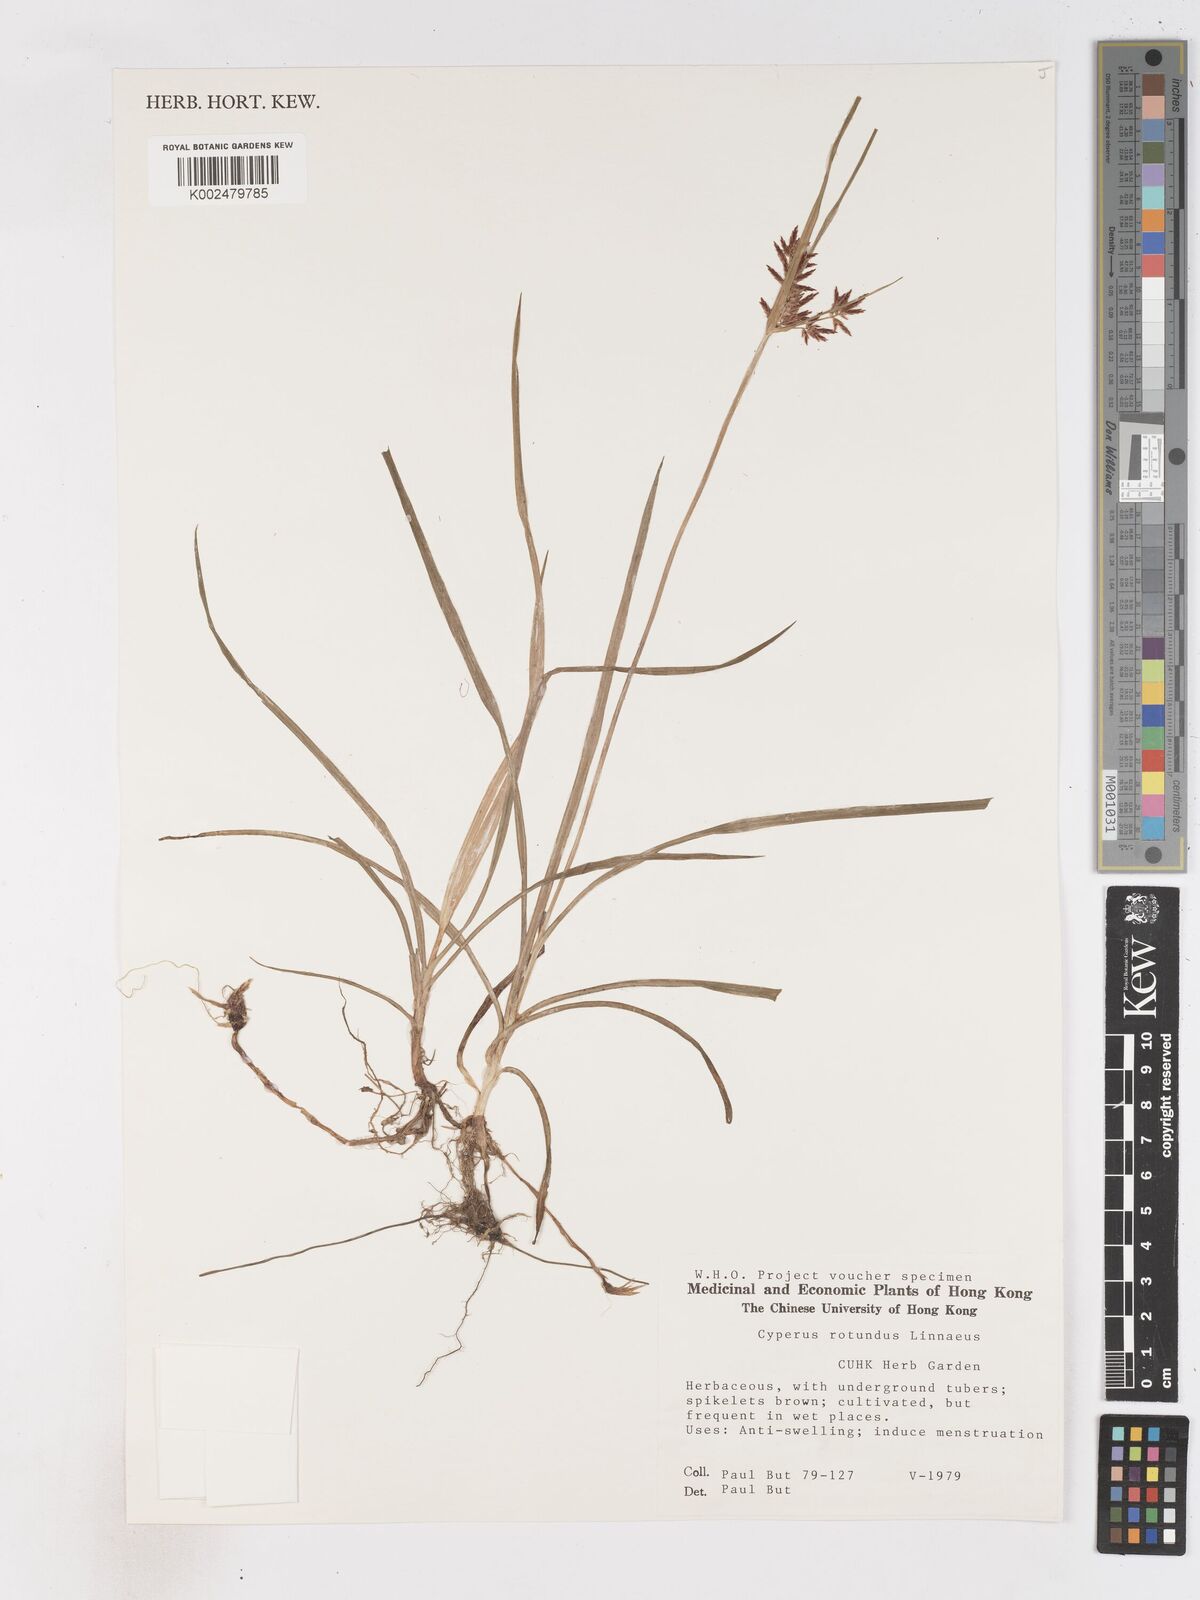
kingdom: Plantae
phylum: Tracheophyta
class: Liliopsida
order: Poales
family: Cyperaceae
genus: Cyperus
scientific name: Cyperus rotundus
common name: Nutgrass
